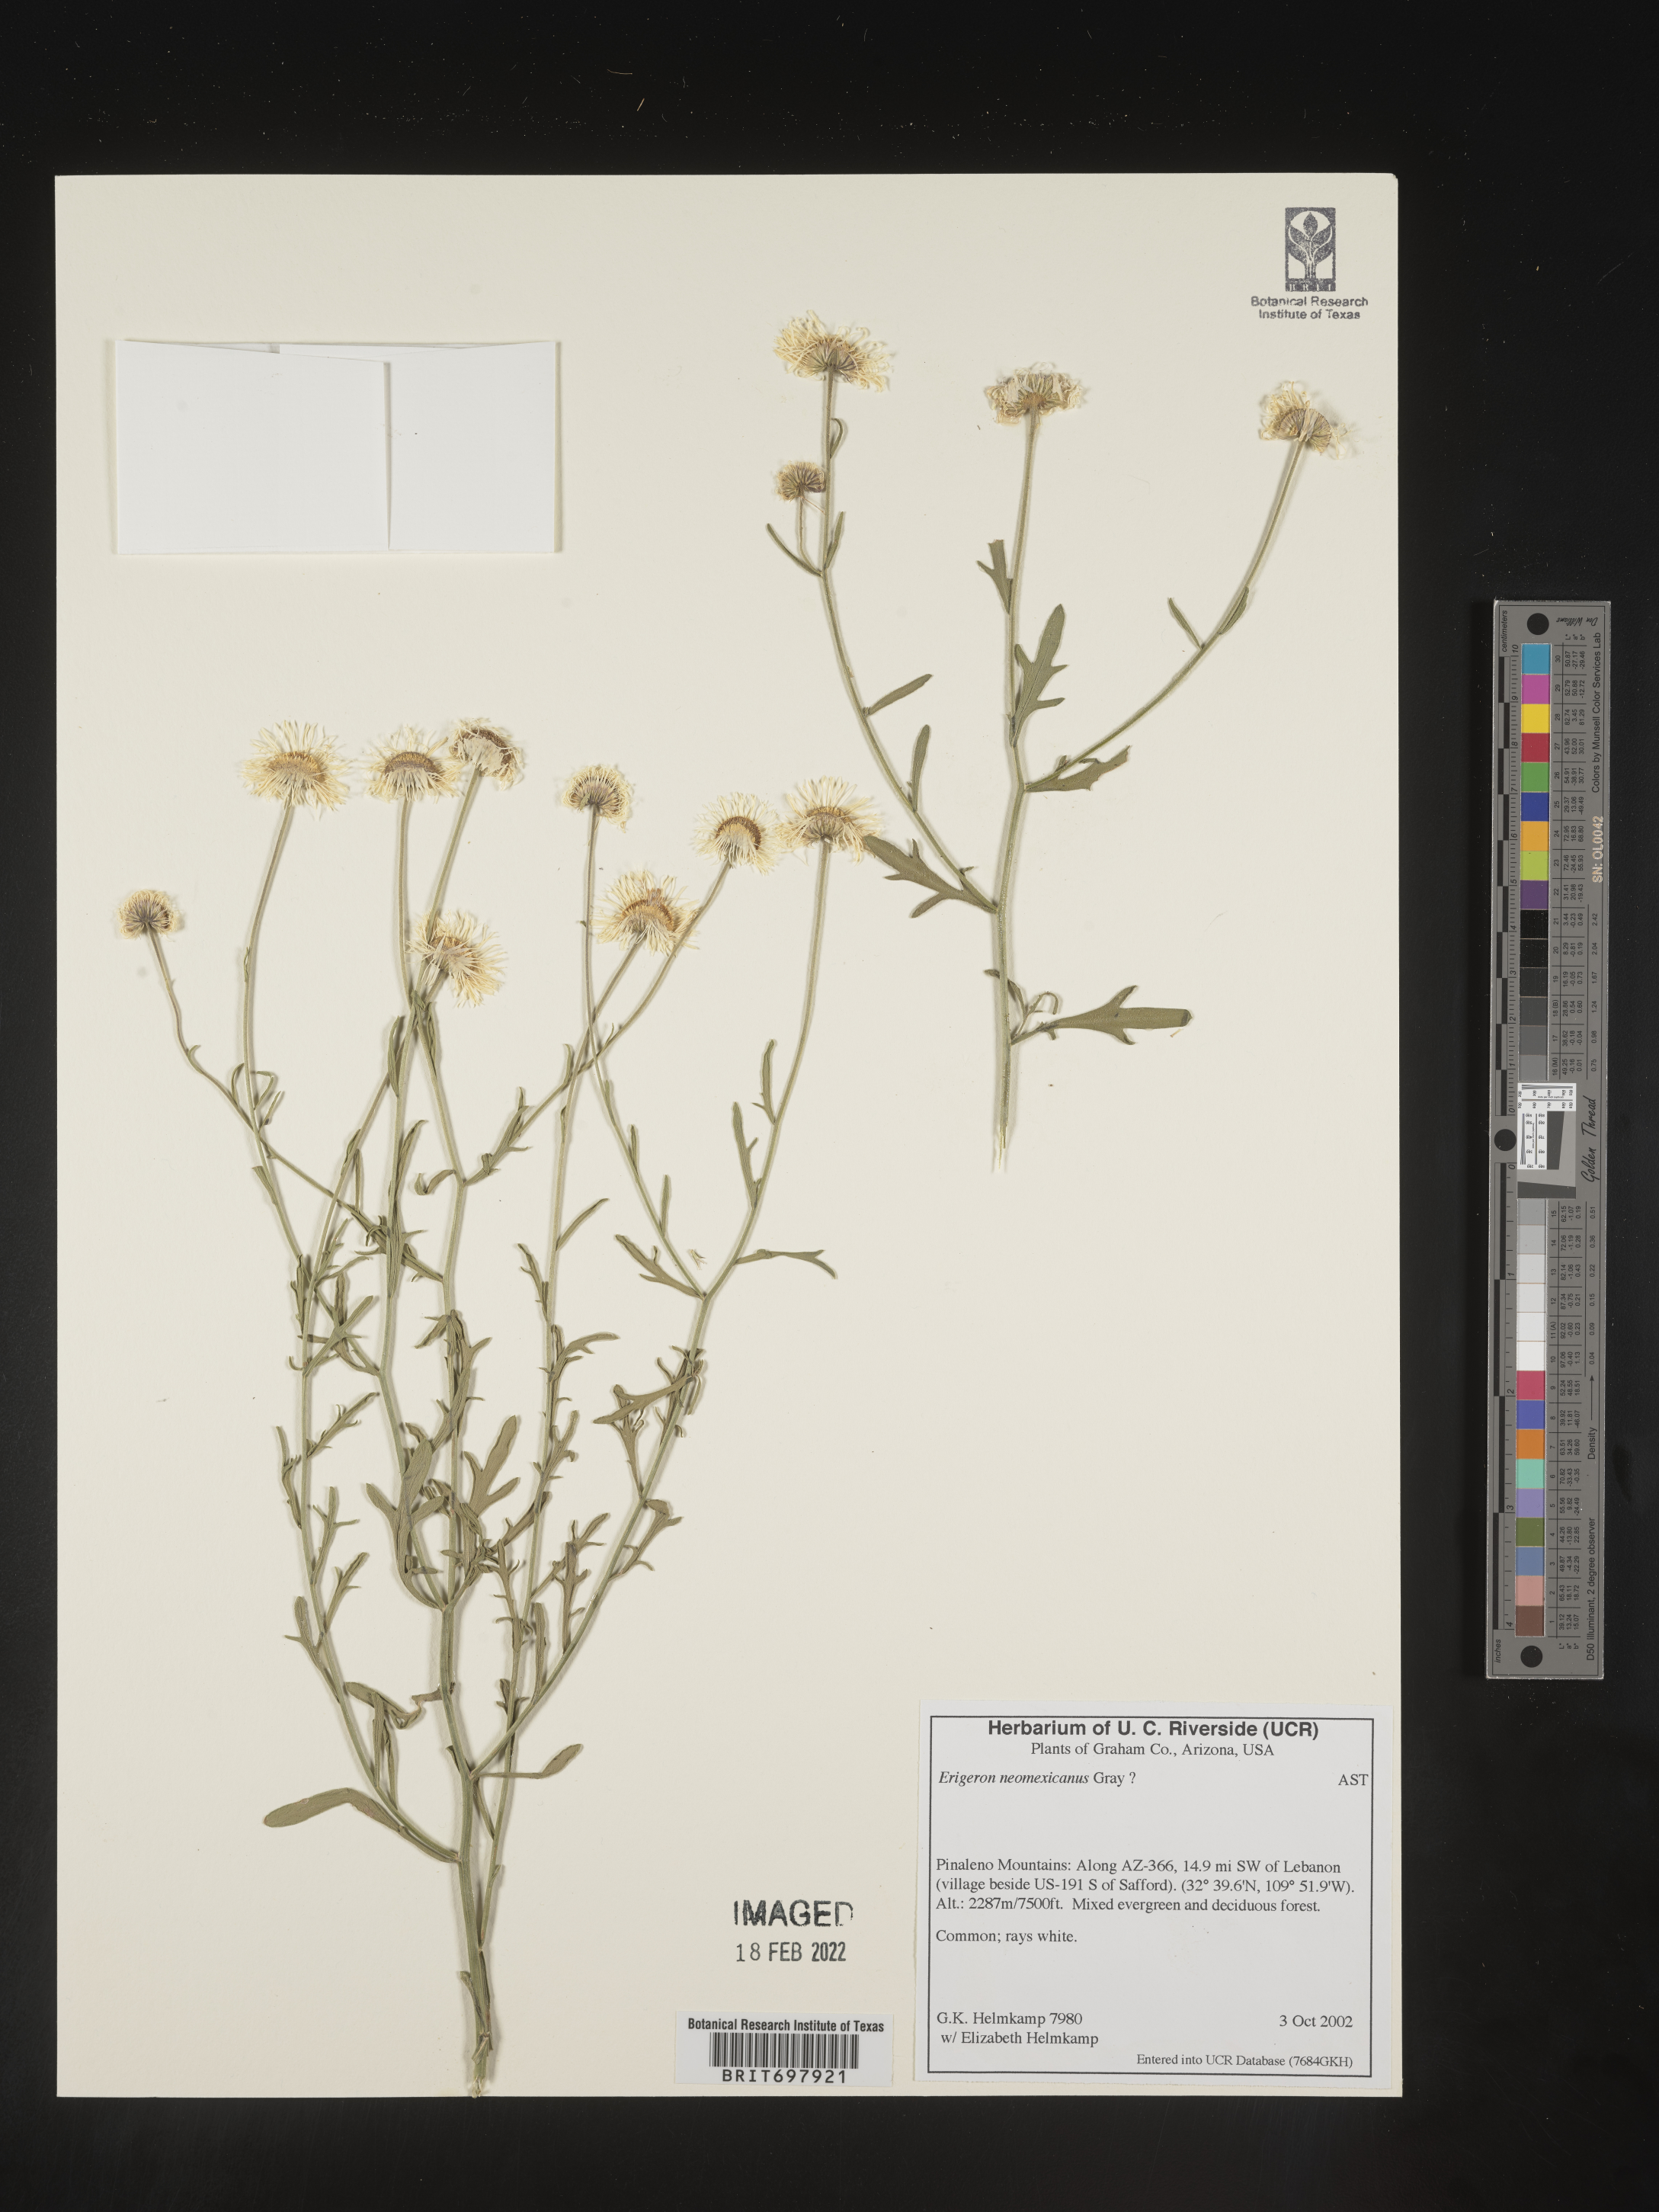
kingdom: Plantae
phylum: Tracheophyta
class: Magnoliopsida
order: Asterales
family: Asteraceae
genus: Erigeron
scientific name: Erigeron neomexicanus
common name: New mexico fleabane
